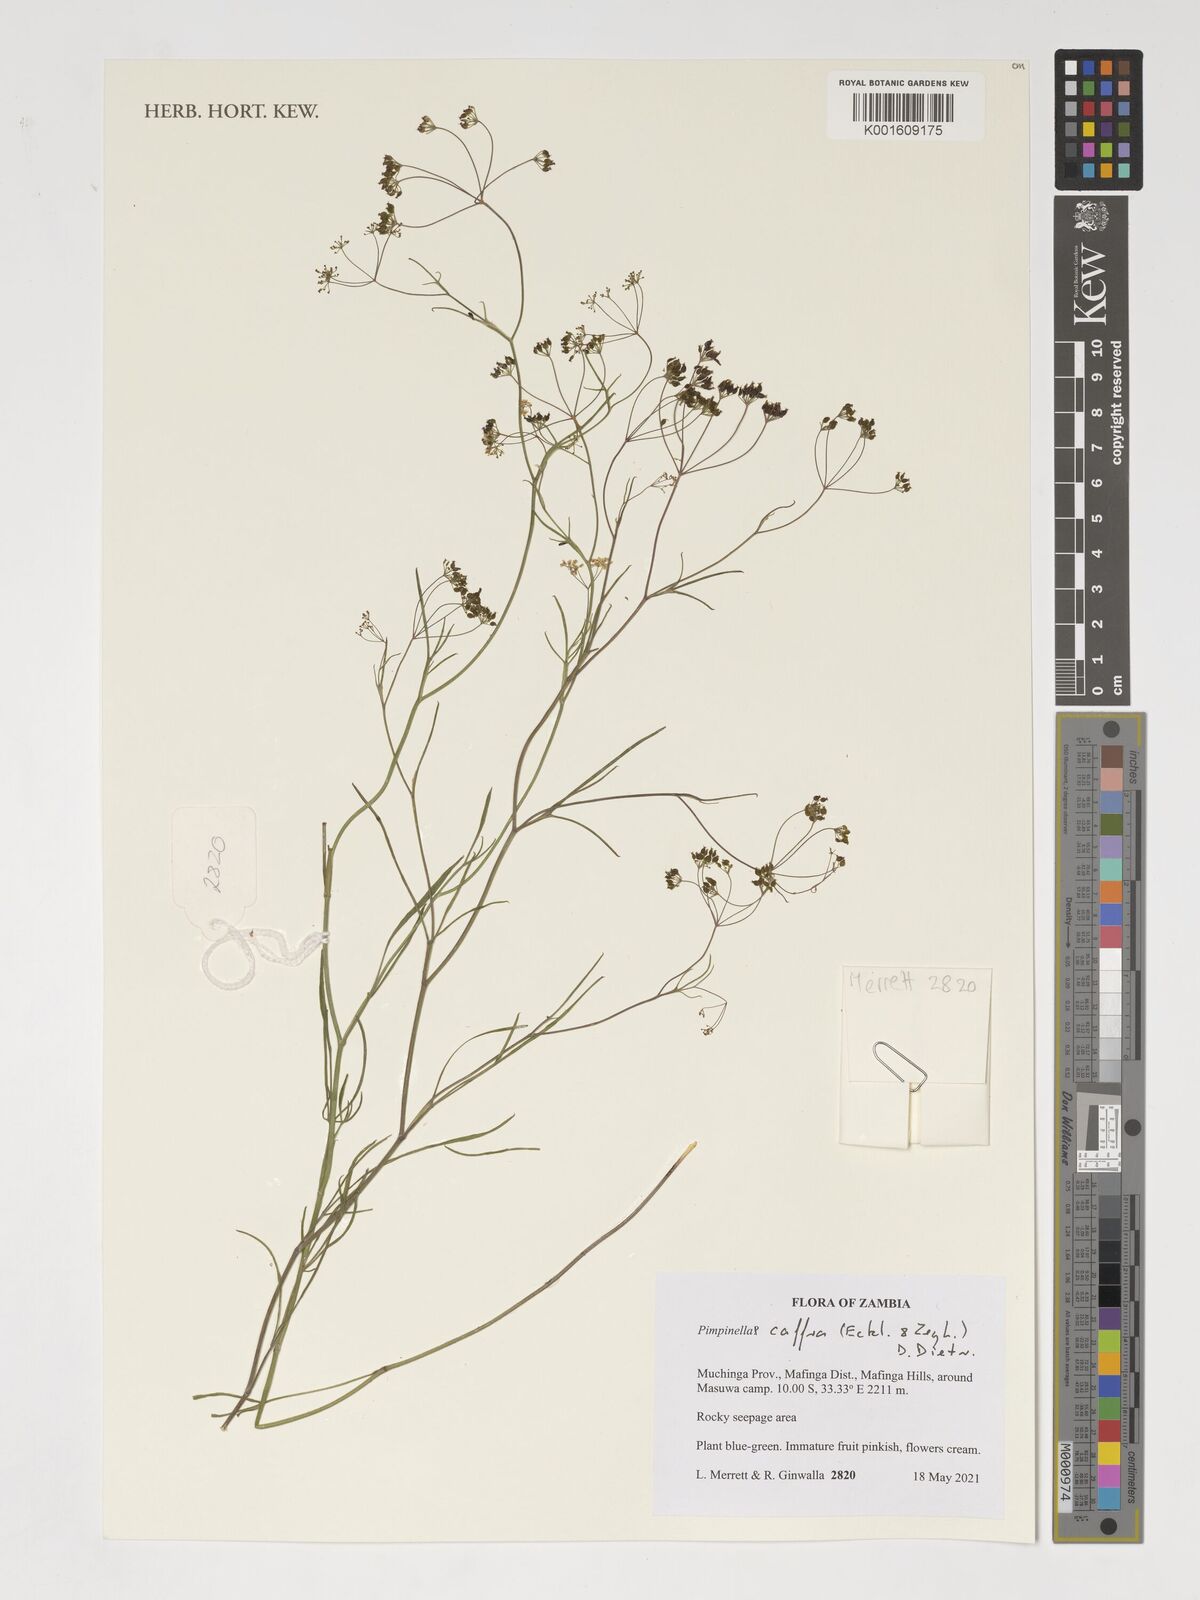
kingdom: Plantae
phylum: Tracheophyta
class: Magnoliopsida
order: Apiales
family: Apiaceae
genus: Pimpinella
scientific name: Pimpinella caffra
